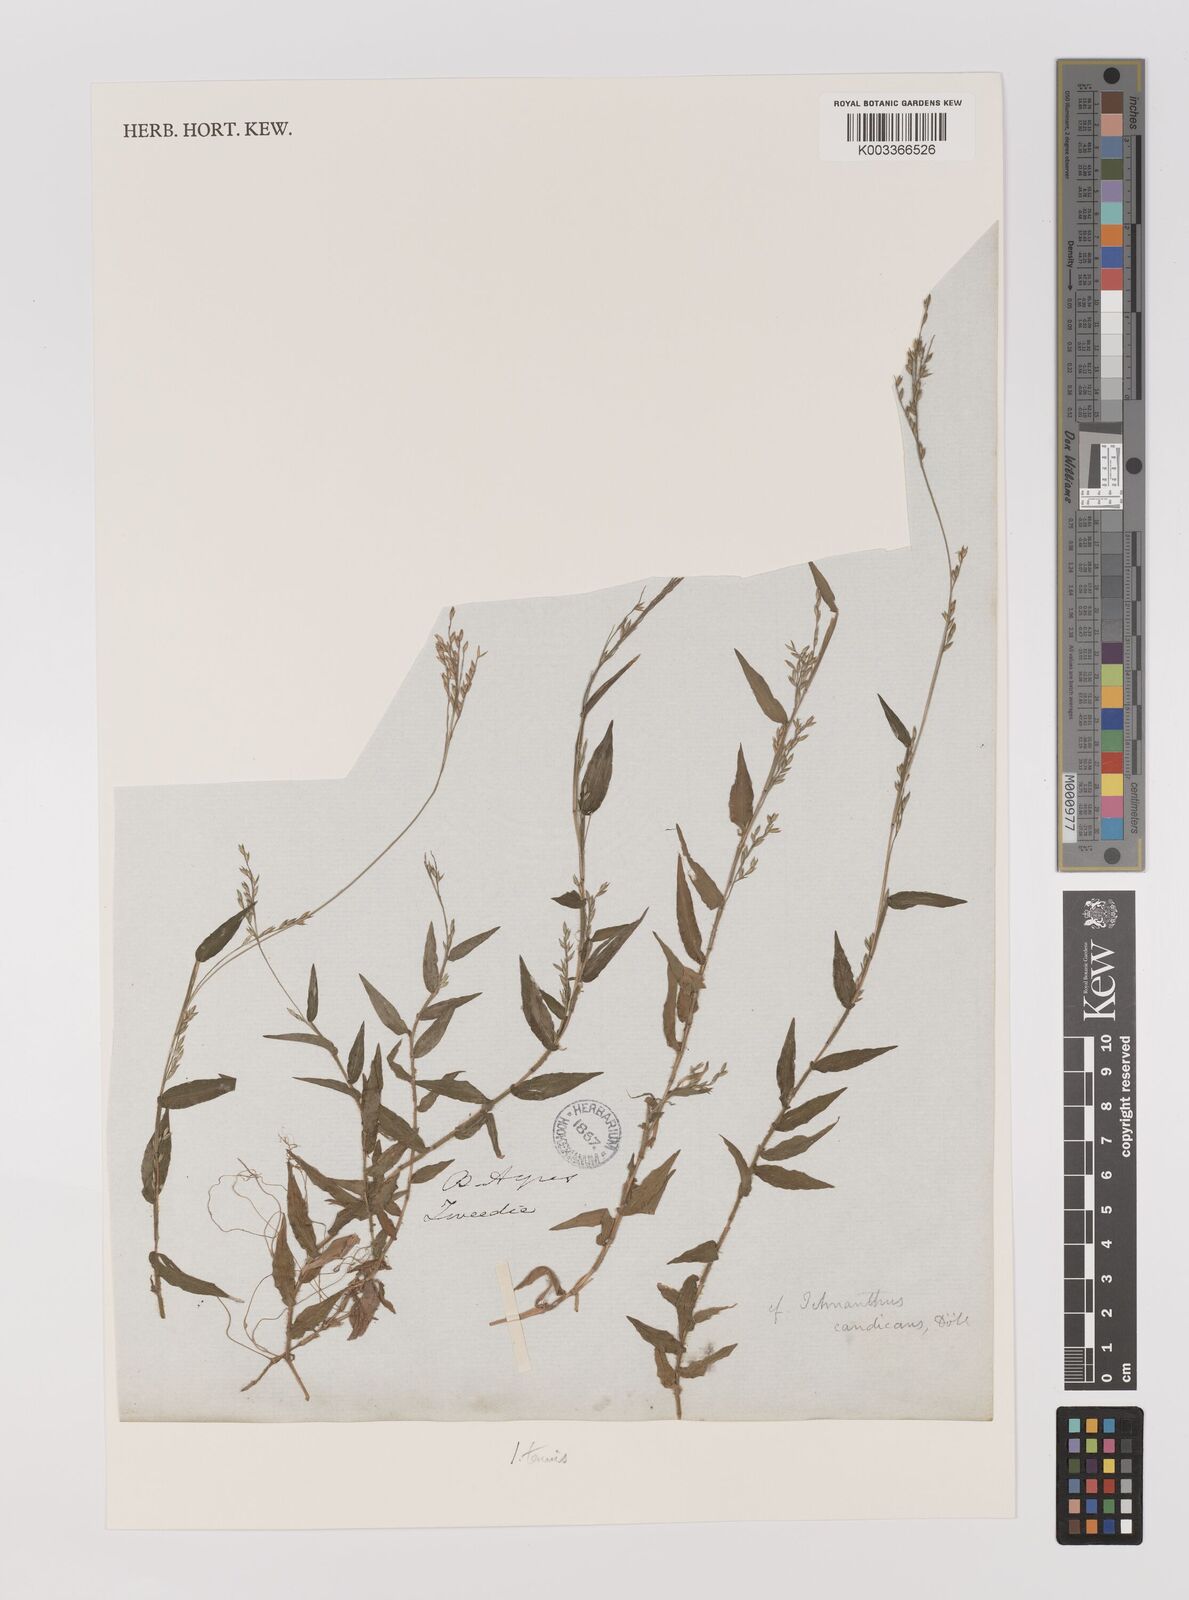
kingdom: Plantae
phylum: Tracheophyta
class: Liliopsida
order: Poales
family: Poaceae
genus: Ichnanthus
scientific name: Ichnanthus tenuis
